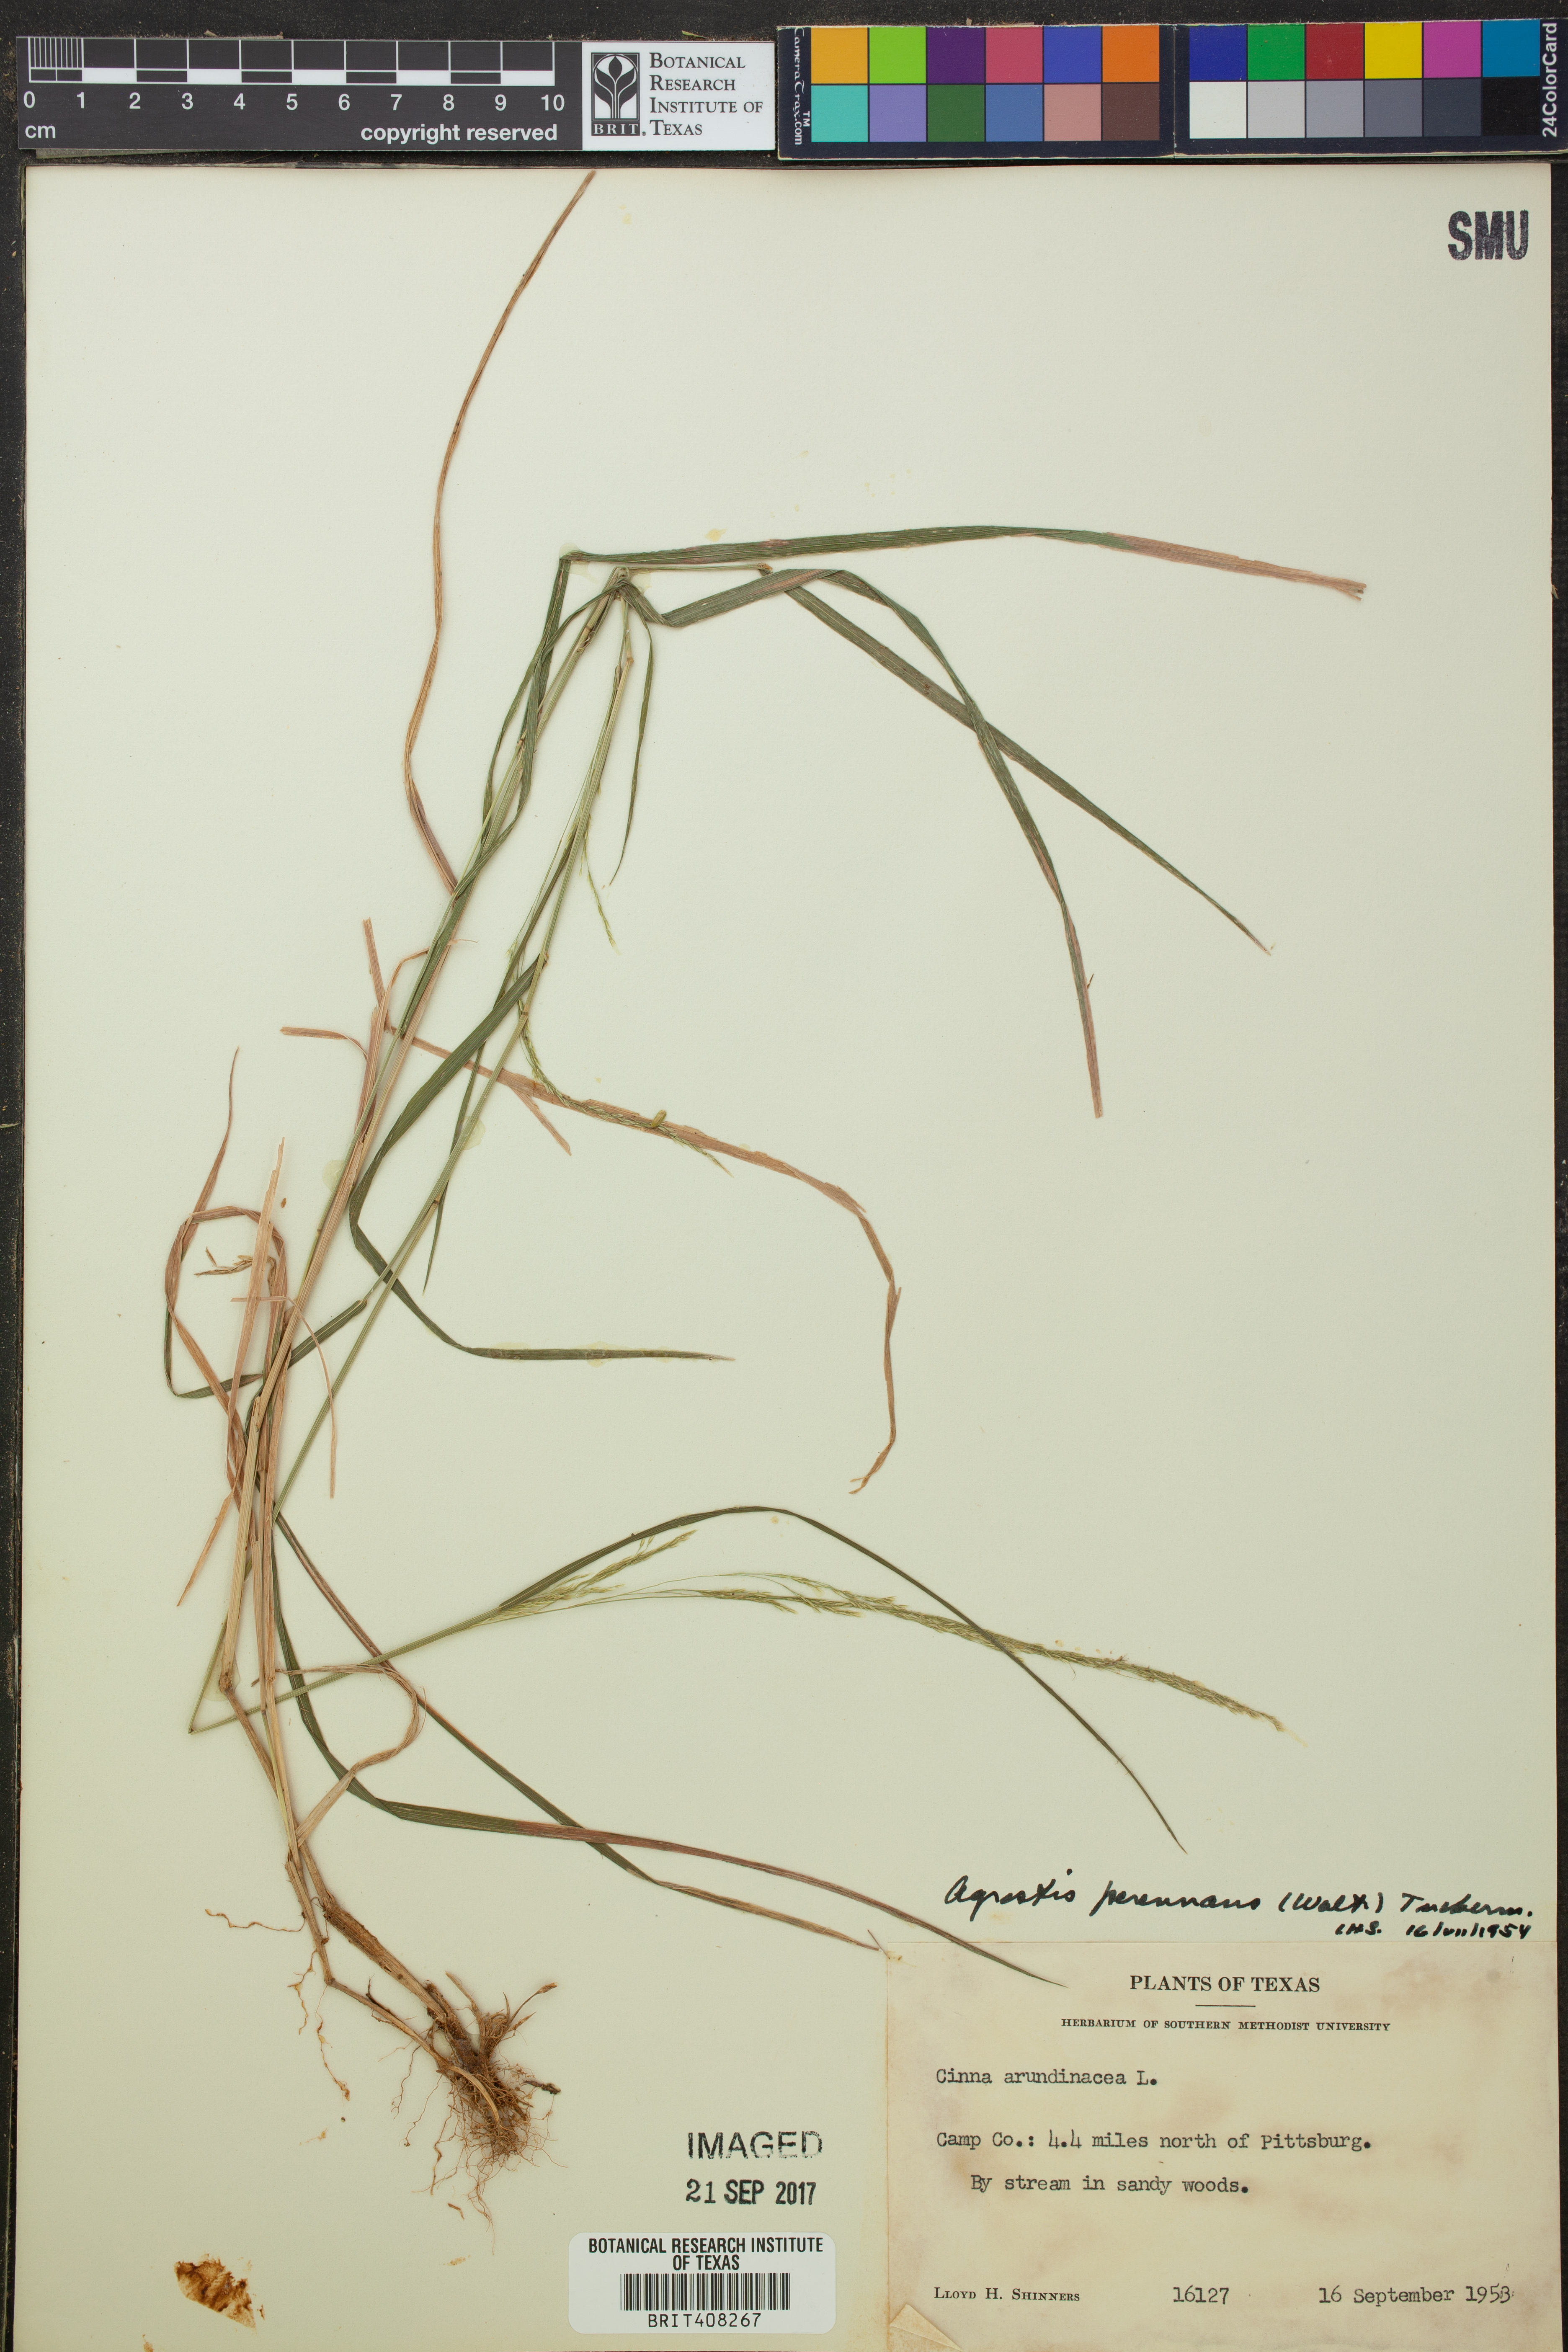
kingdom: Plantae
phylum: Tracheophyta
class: Liliopsida
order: Poales
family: Poaceae
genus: Agrostis
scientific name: Agrostis perennans
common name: Autumn bent
